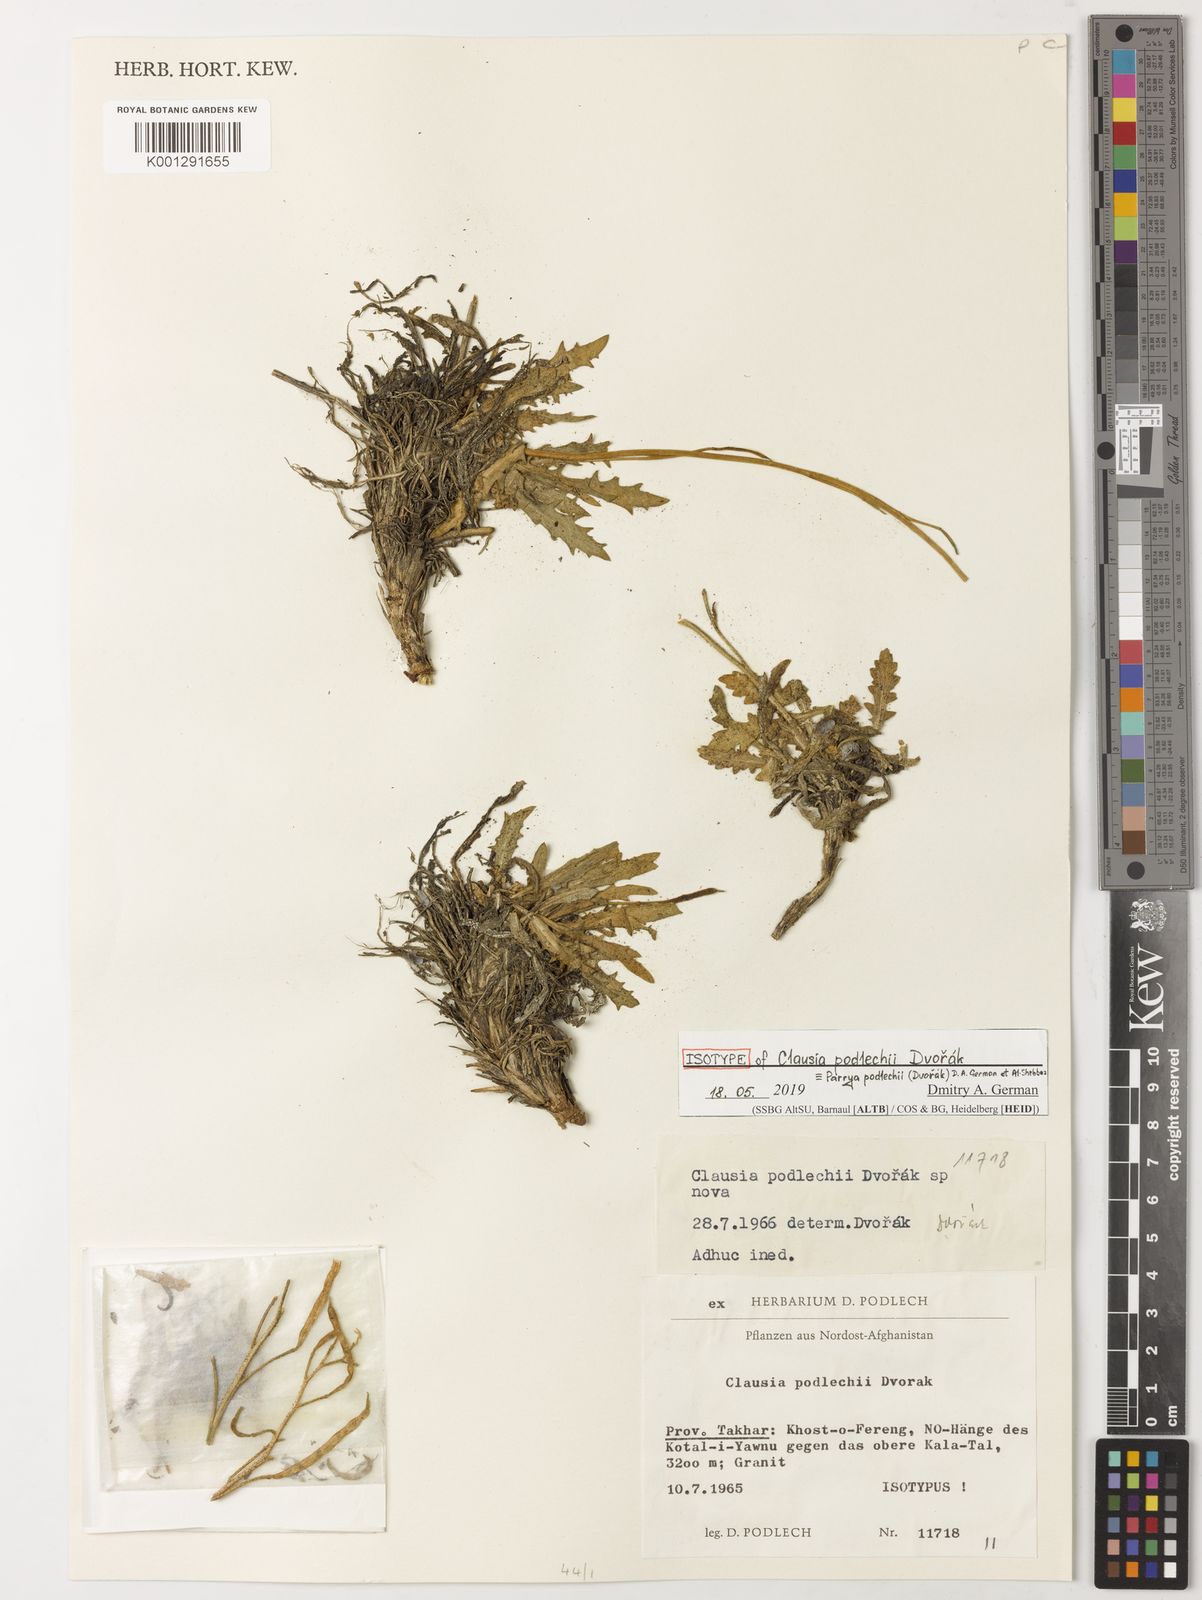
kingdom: Plantae
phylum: Tracheophyta
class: Magnoliopsida
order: Brassicales
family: Brassicaceae
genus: Parrya
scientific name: Parrya
